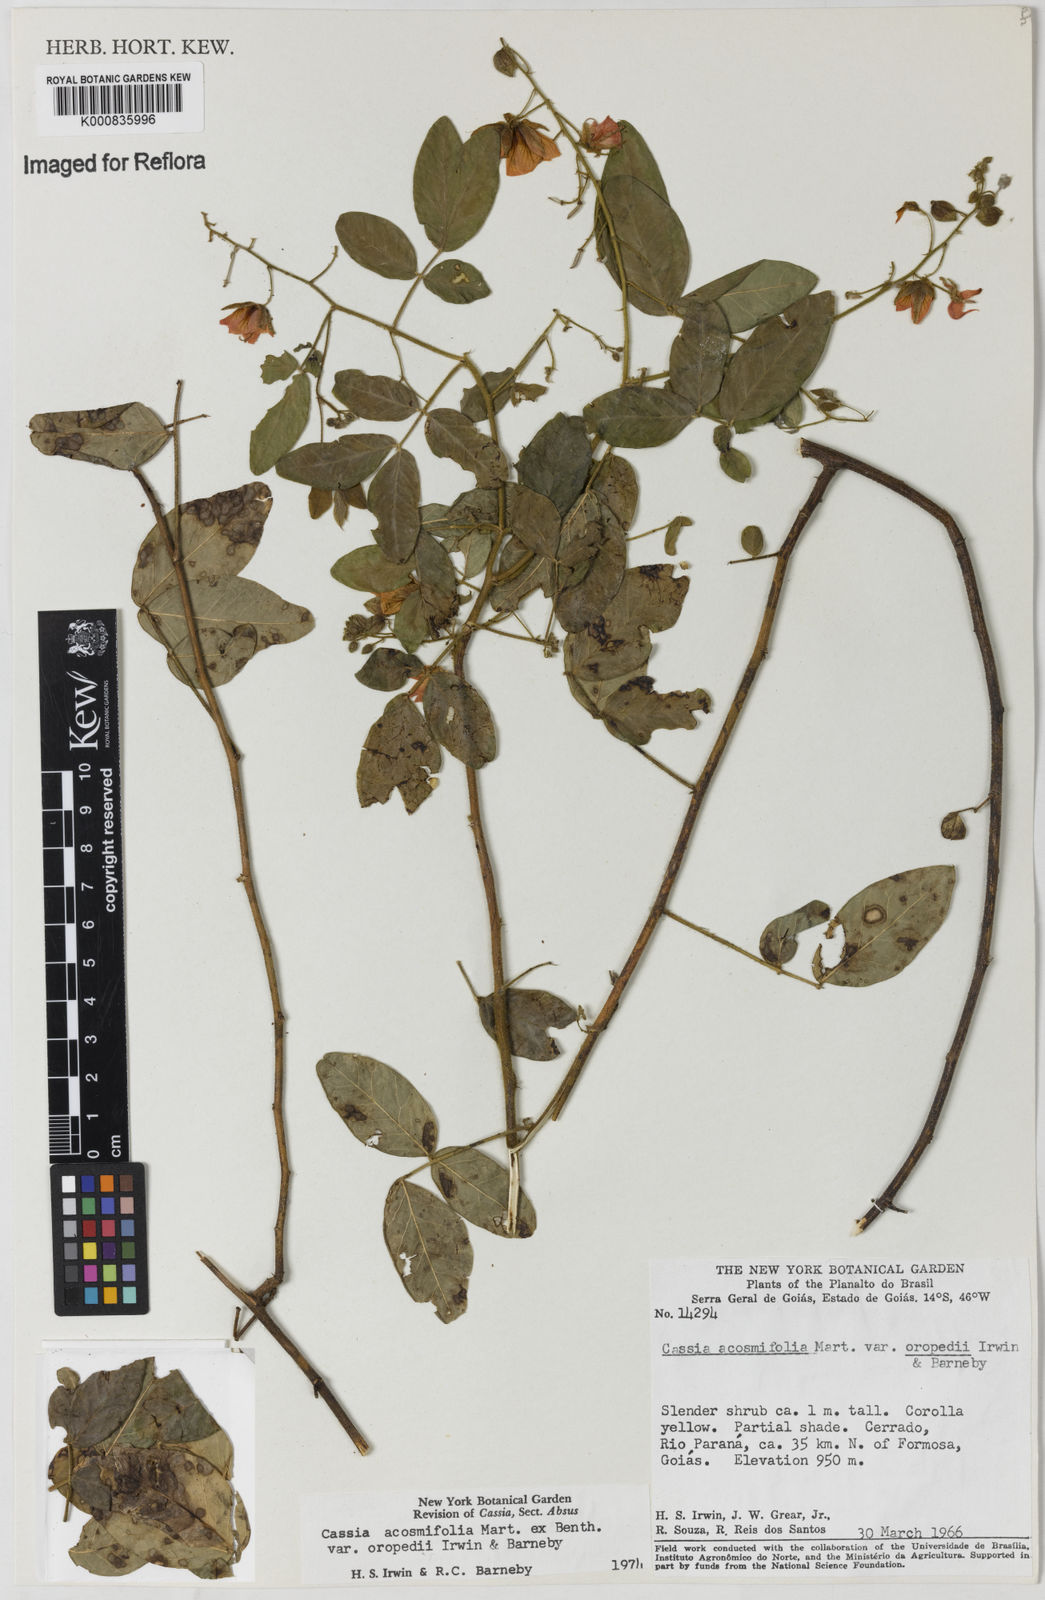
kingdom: Plantae
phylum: Tracheophyta
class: Magnoliopsida
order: Fabales
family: Fabaceae
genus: Chamaecrista
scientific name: Chamaecrista acosmifolia
